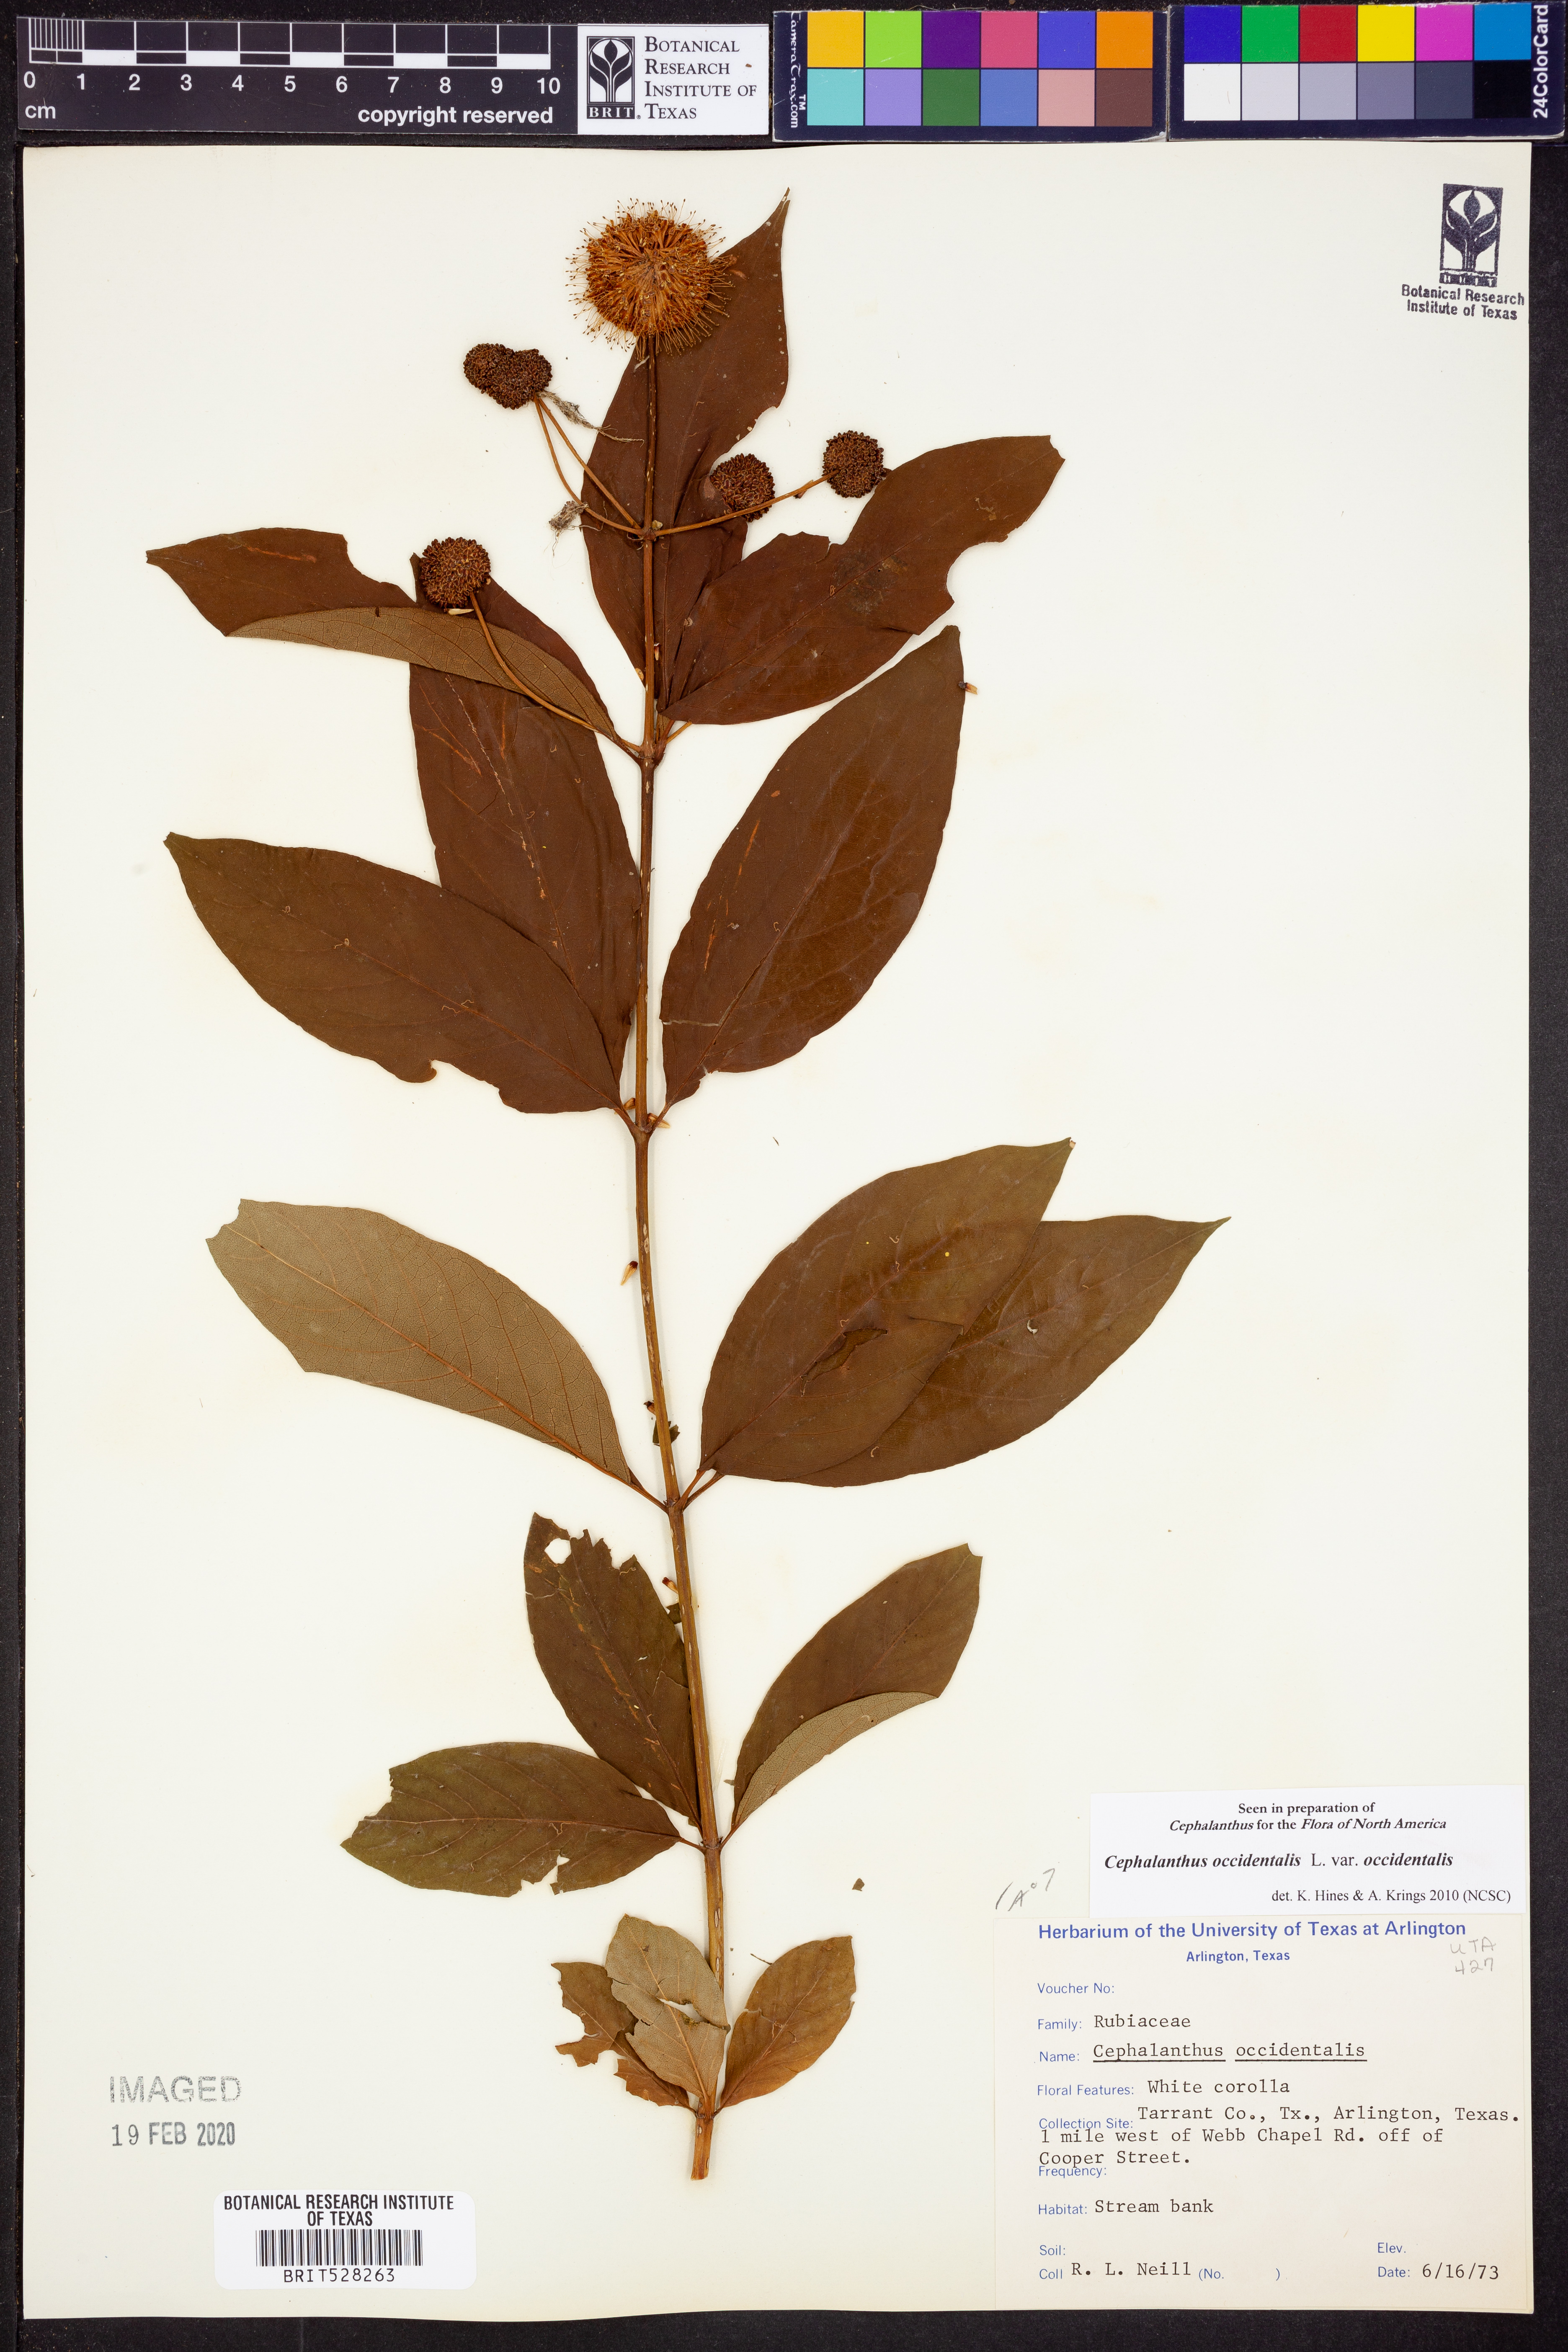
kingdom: Plantae
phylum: Tracheophyta
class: Magnoliopsida
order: Gentianales
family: Rubiaceae
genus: Cephalanthus
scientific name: Cephalanthus occidentalis
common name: Button-willow
